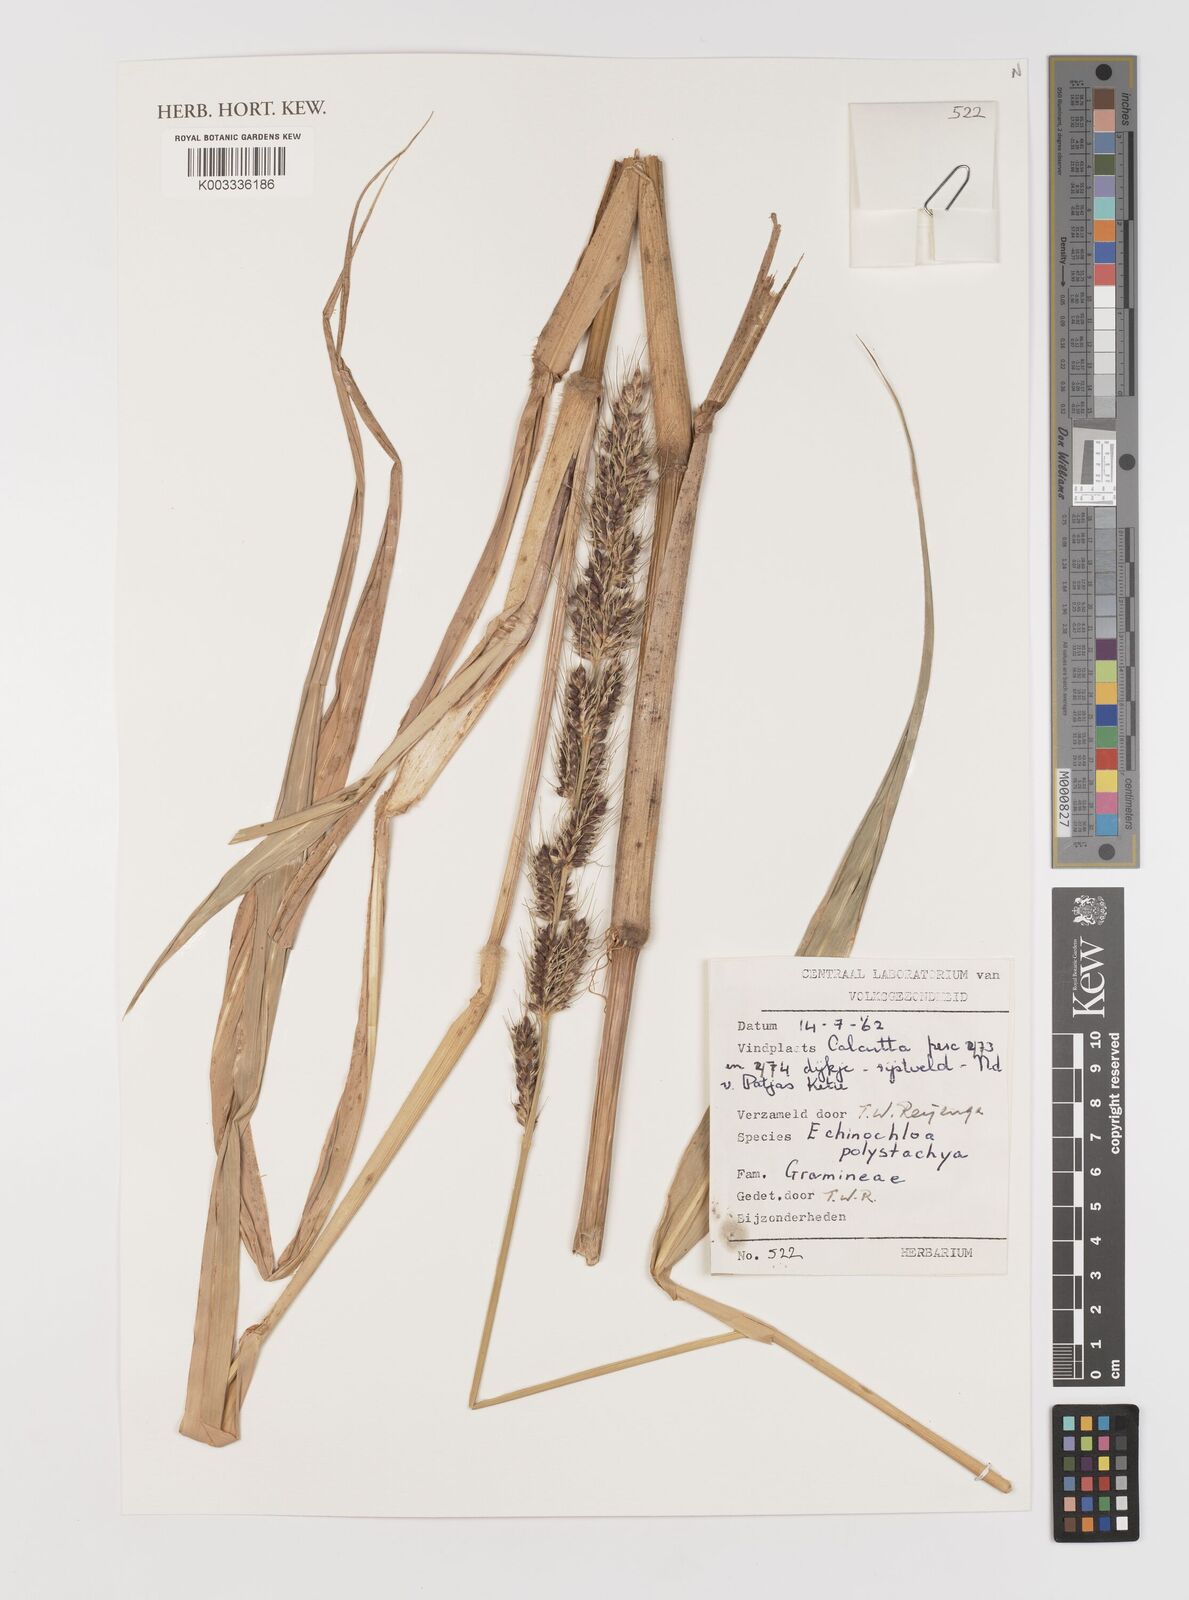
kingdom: Plantae
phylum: Tracheophyta
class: Liliopsida
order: Poales
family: Poaceae
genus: Echinochloa
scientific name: Echinochloa polystachya
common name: Creeping river grass
